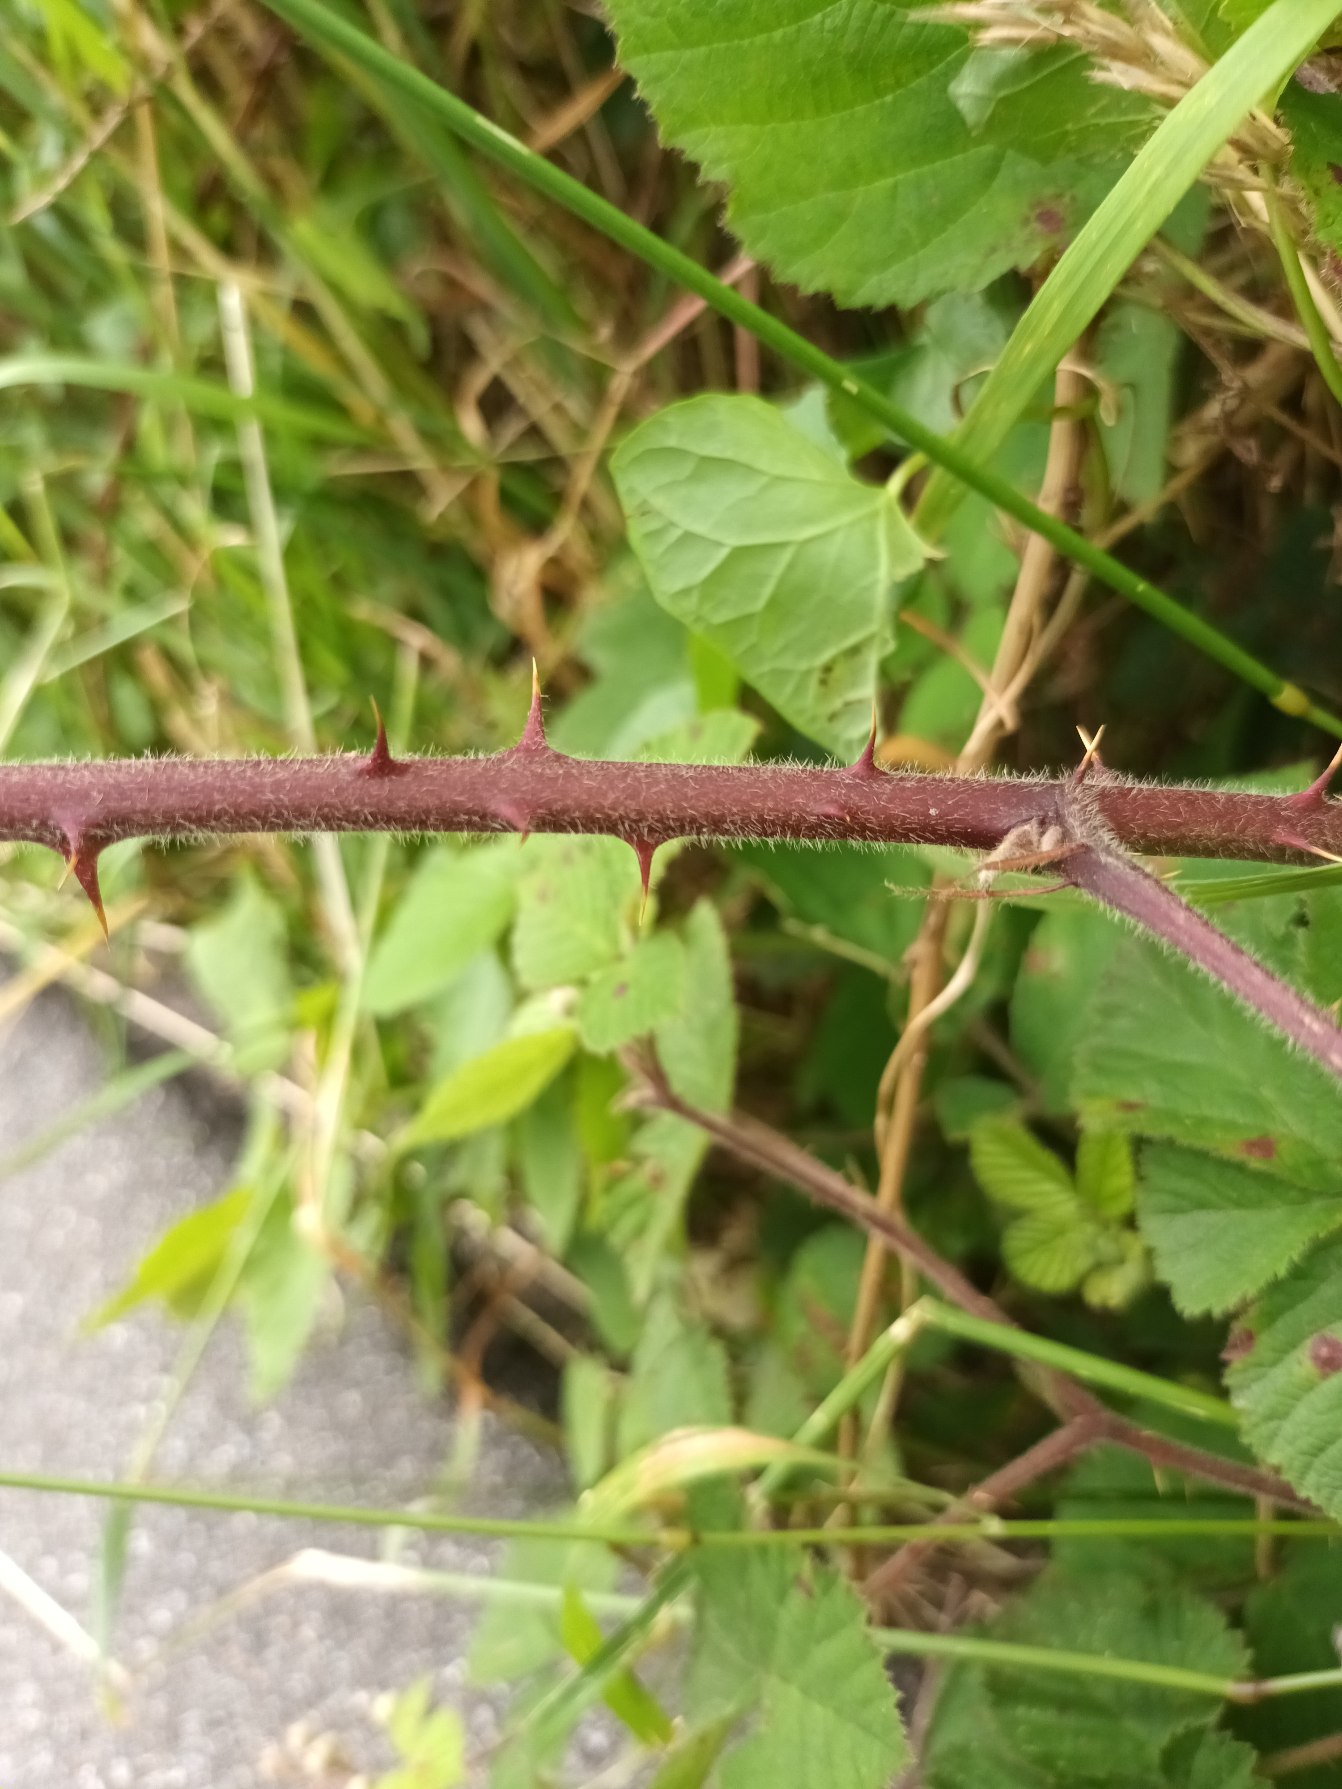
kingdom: Plantae
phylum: Tracheophyta
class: Magnoliopsida
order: Rosales
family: Rosaceae
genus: Rubus
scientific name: Rubus vestitus
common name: Rundbladet brombær
